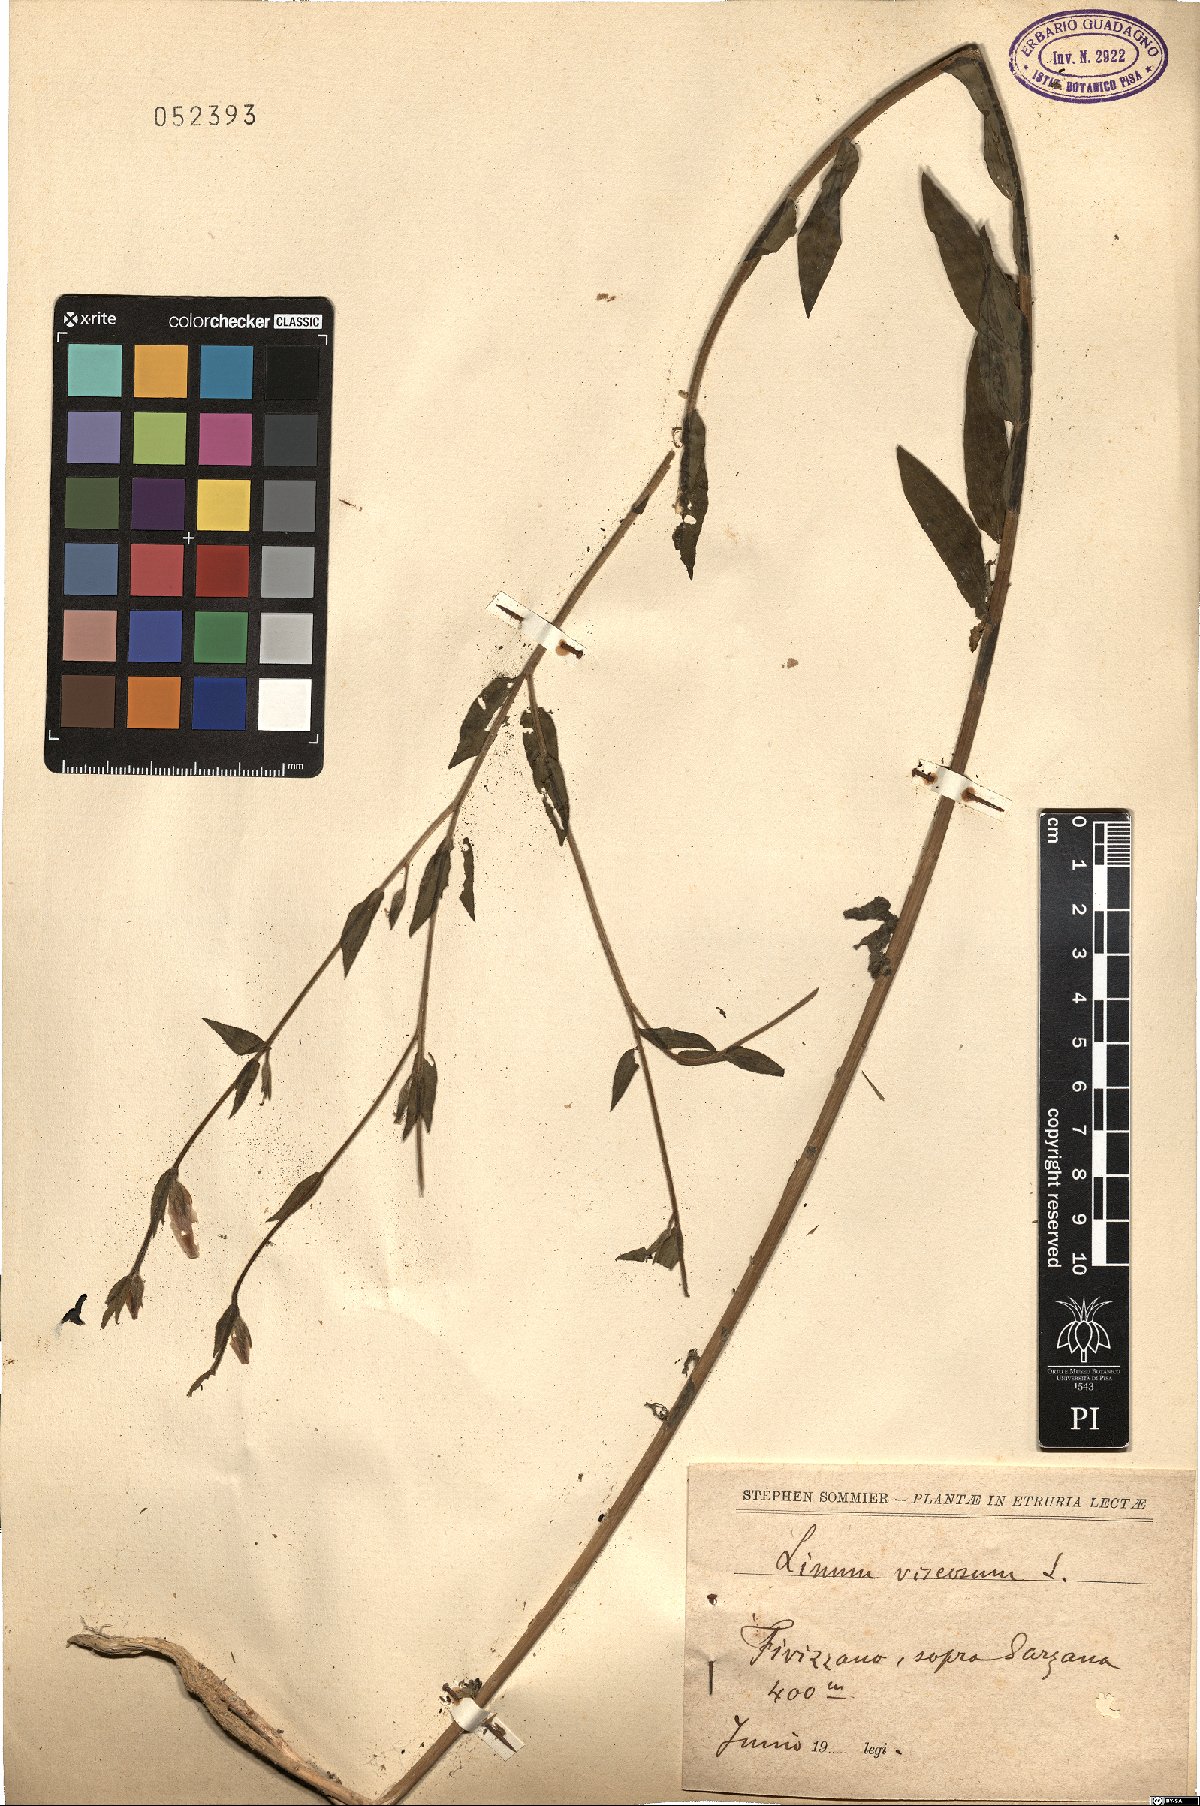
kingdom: Plantae
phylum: Tracheophyta
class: Magnoliopsida
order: Malpighiales
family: Linaceae
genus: Linum
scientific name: Linum viscosum
